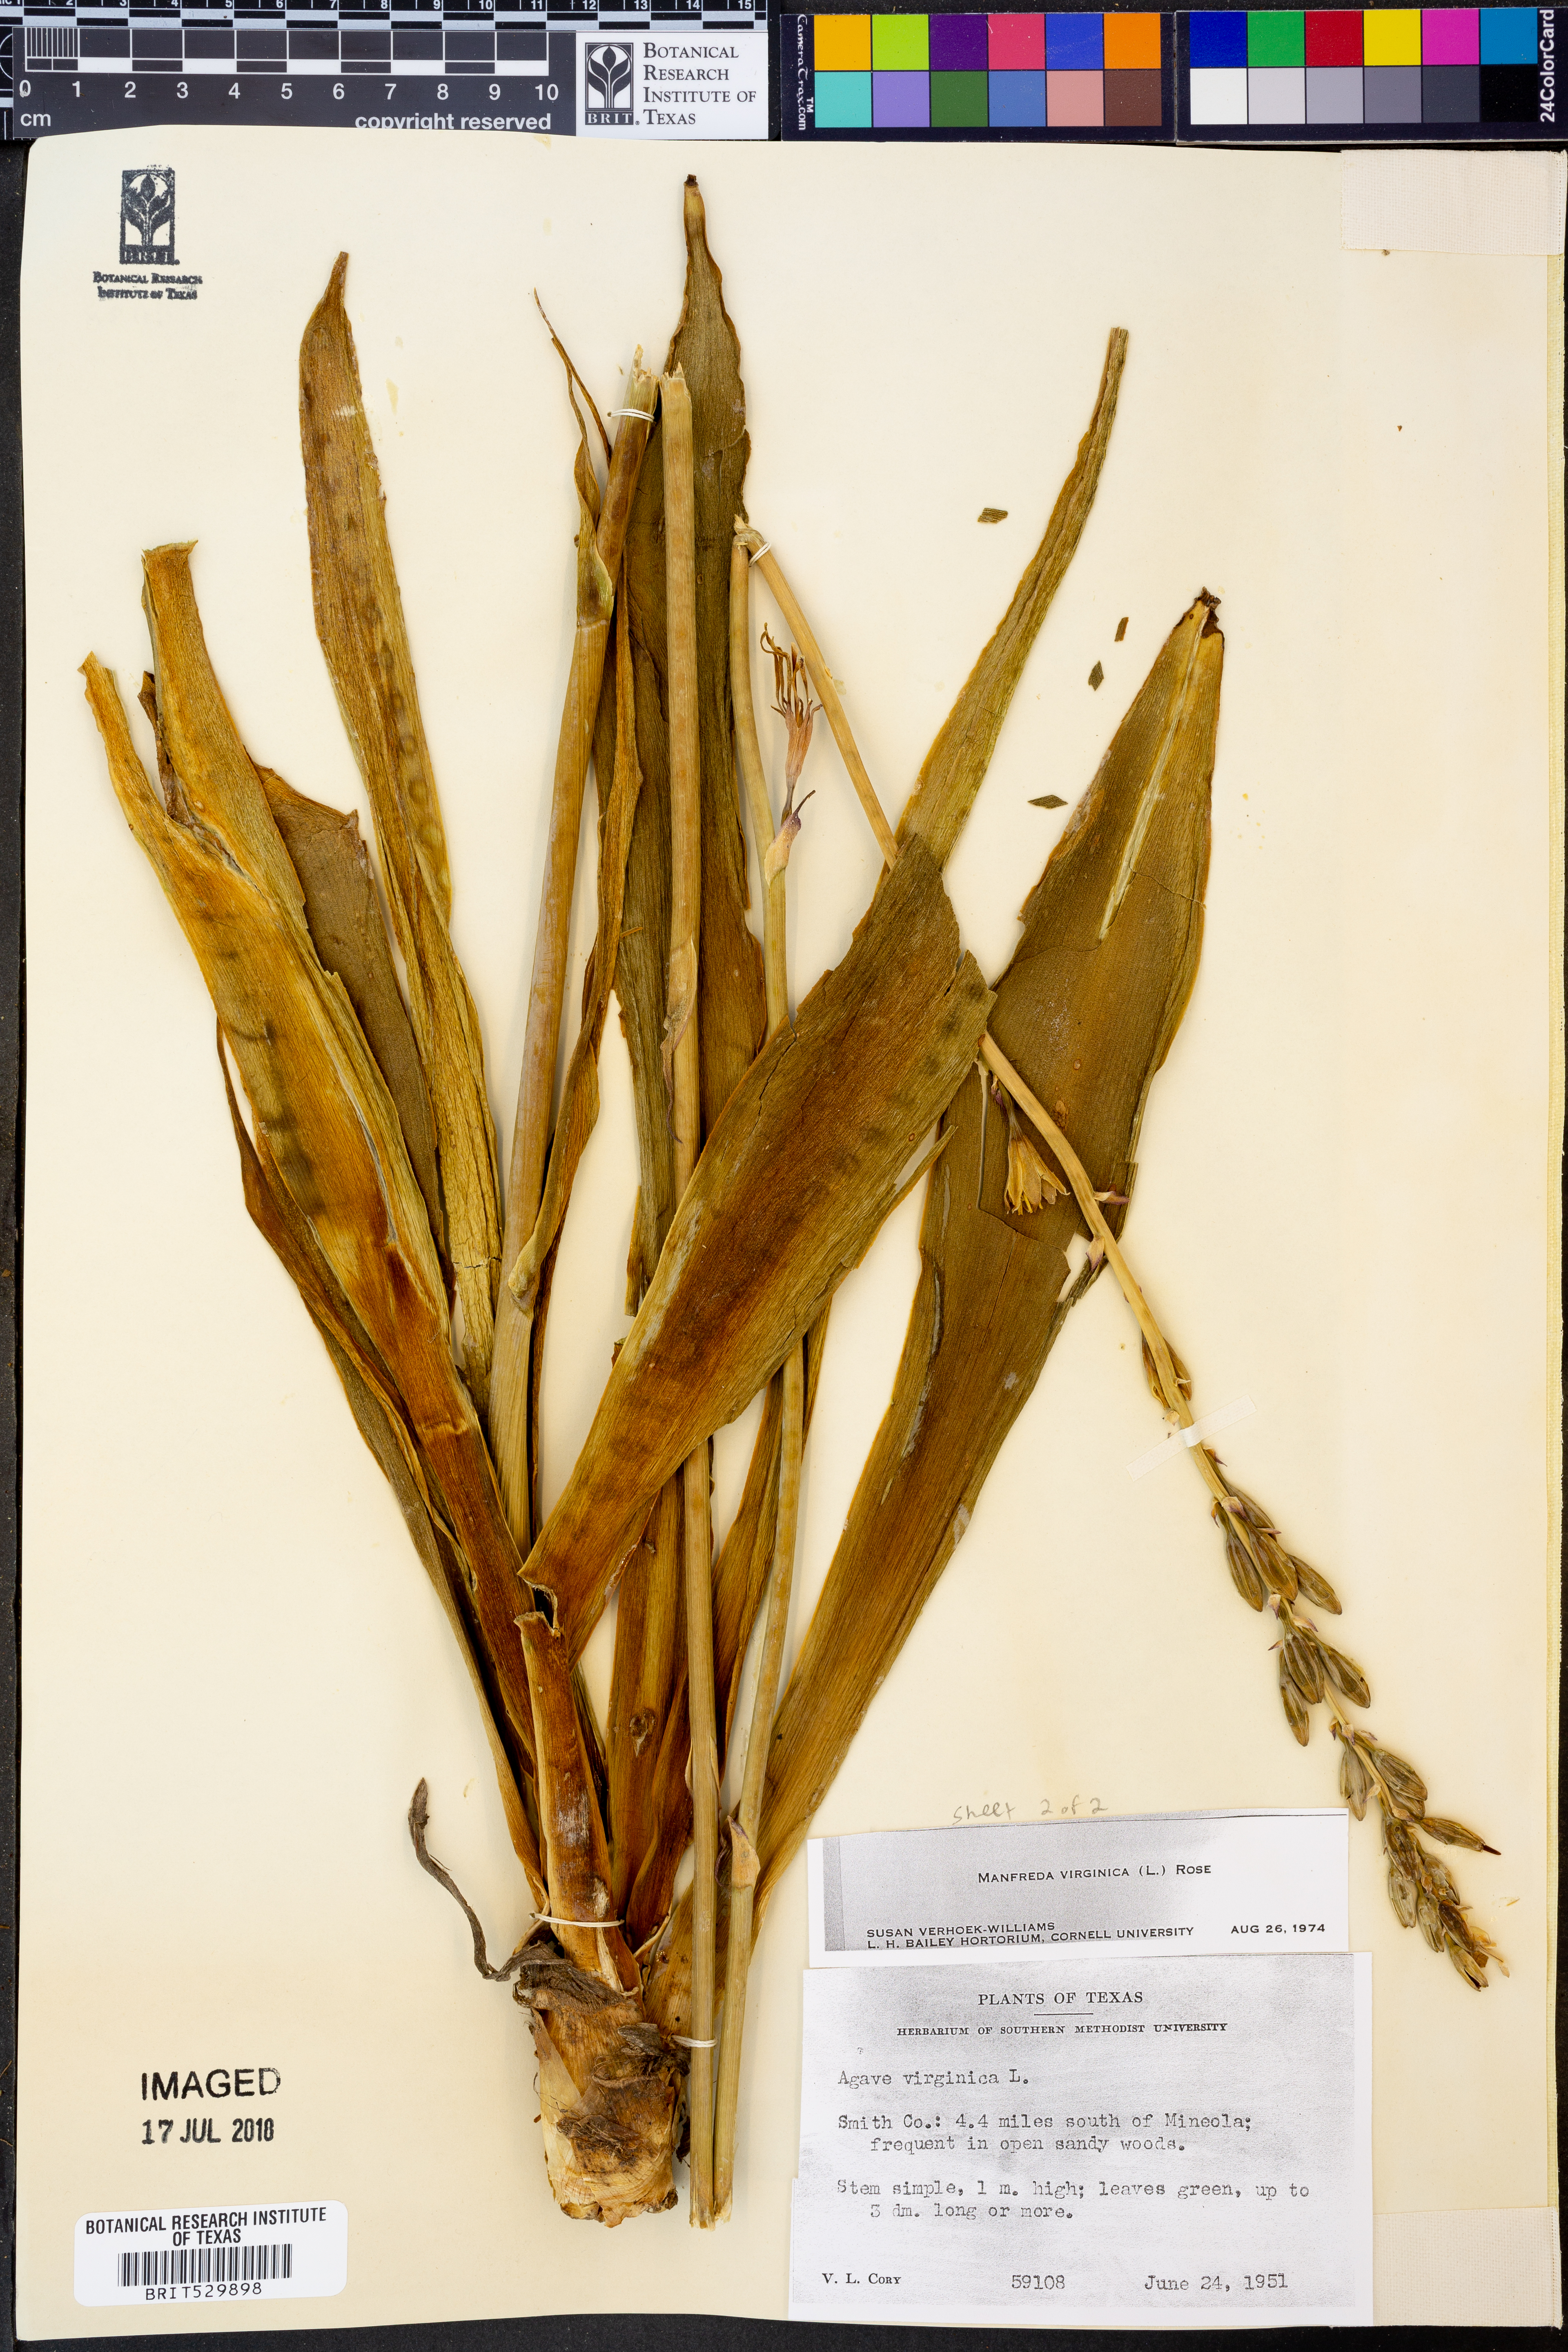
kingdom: Plantae
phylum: Tracheophyta
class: Liliopsida
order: Asparagales
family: Asparagaceae
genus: Agave
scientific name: Agave virginica
